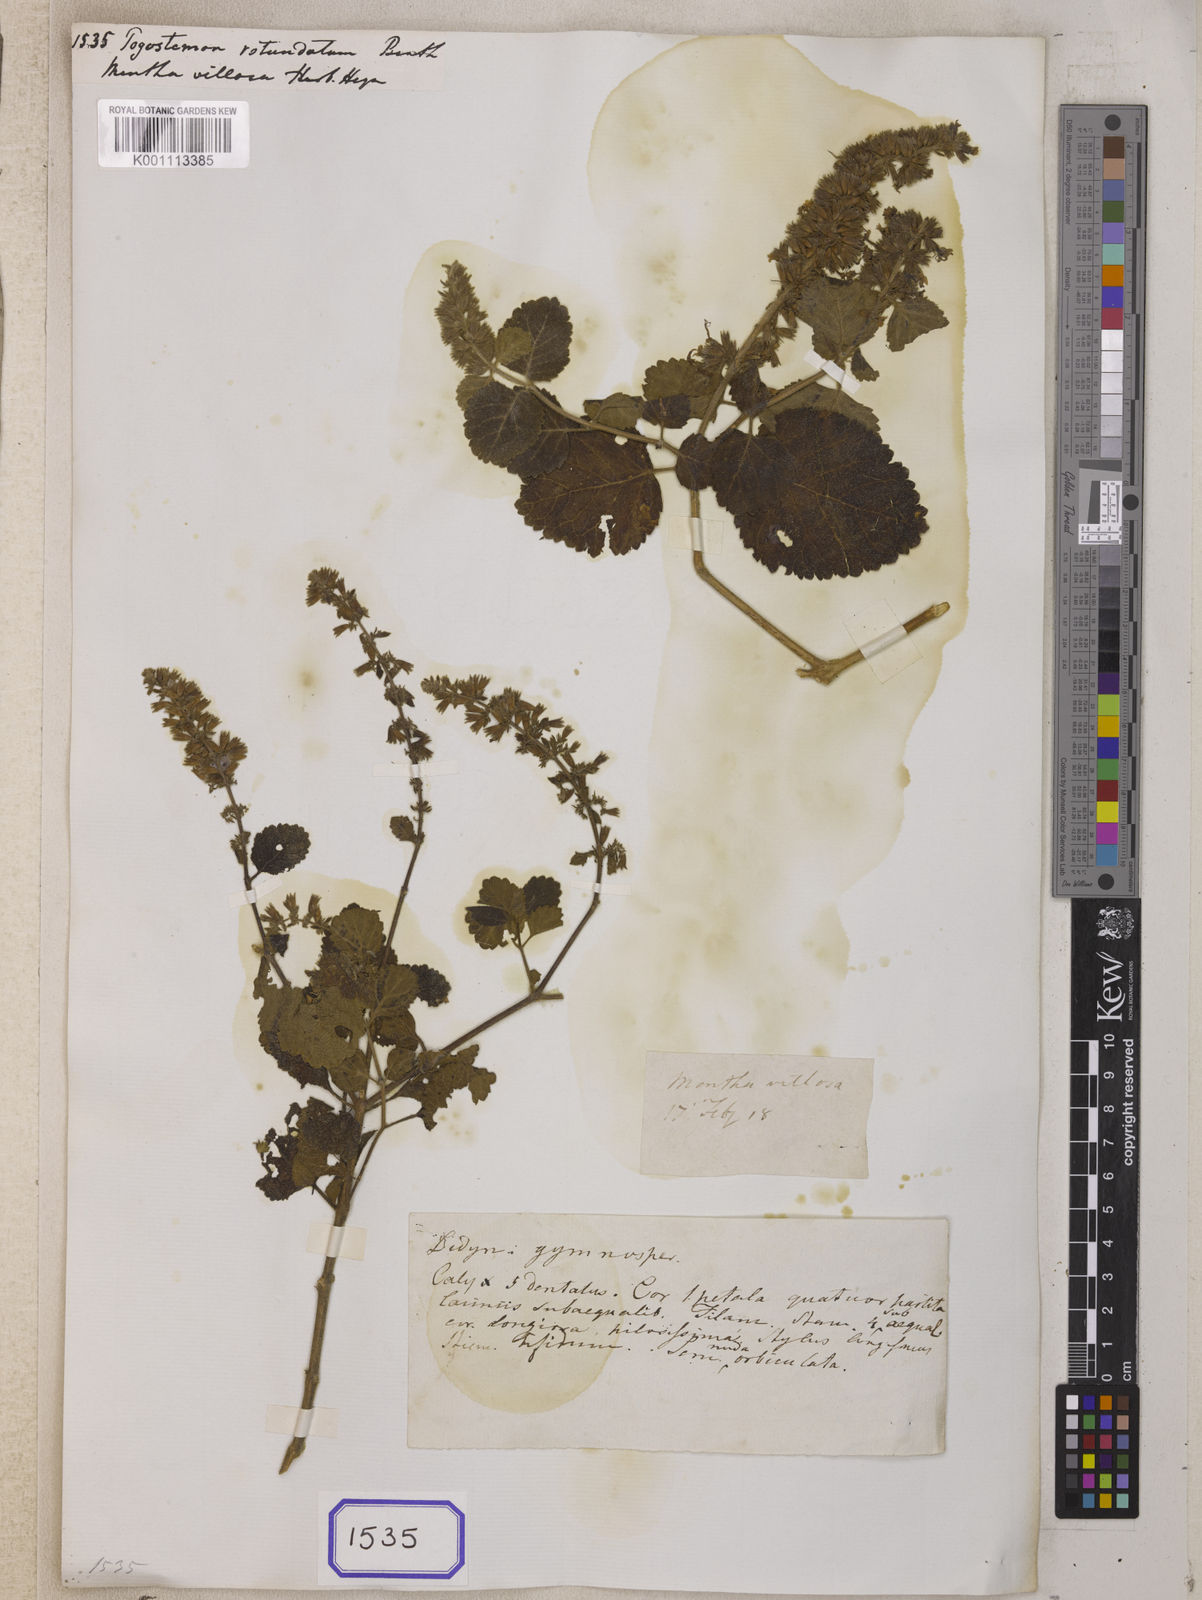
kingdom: Plantae
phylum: Tracheophyta
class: Magnoliopsida
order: Lamiales
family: Lamiaceae
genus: Pogostemon
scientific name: Pogostemon rotundatus
